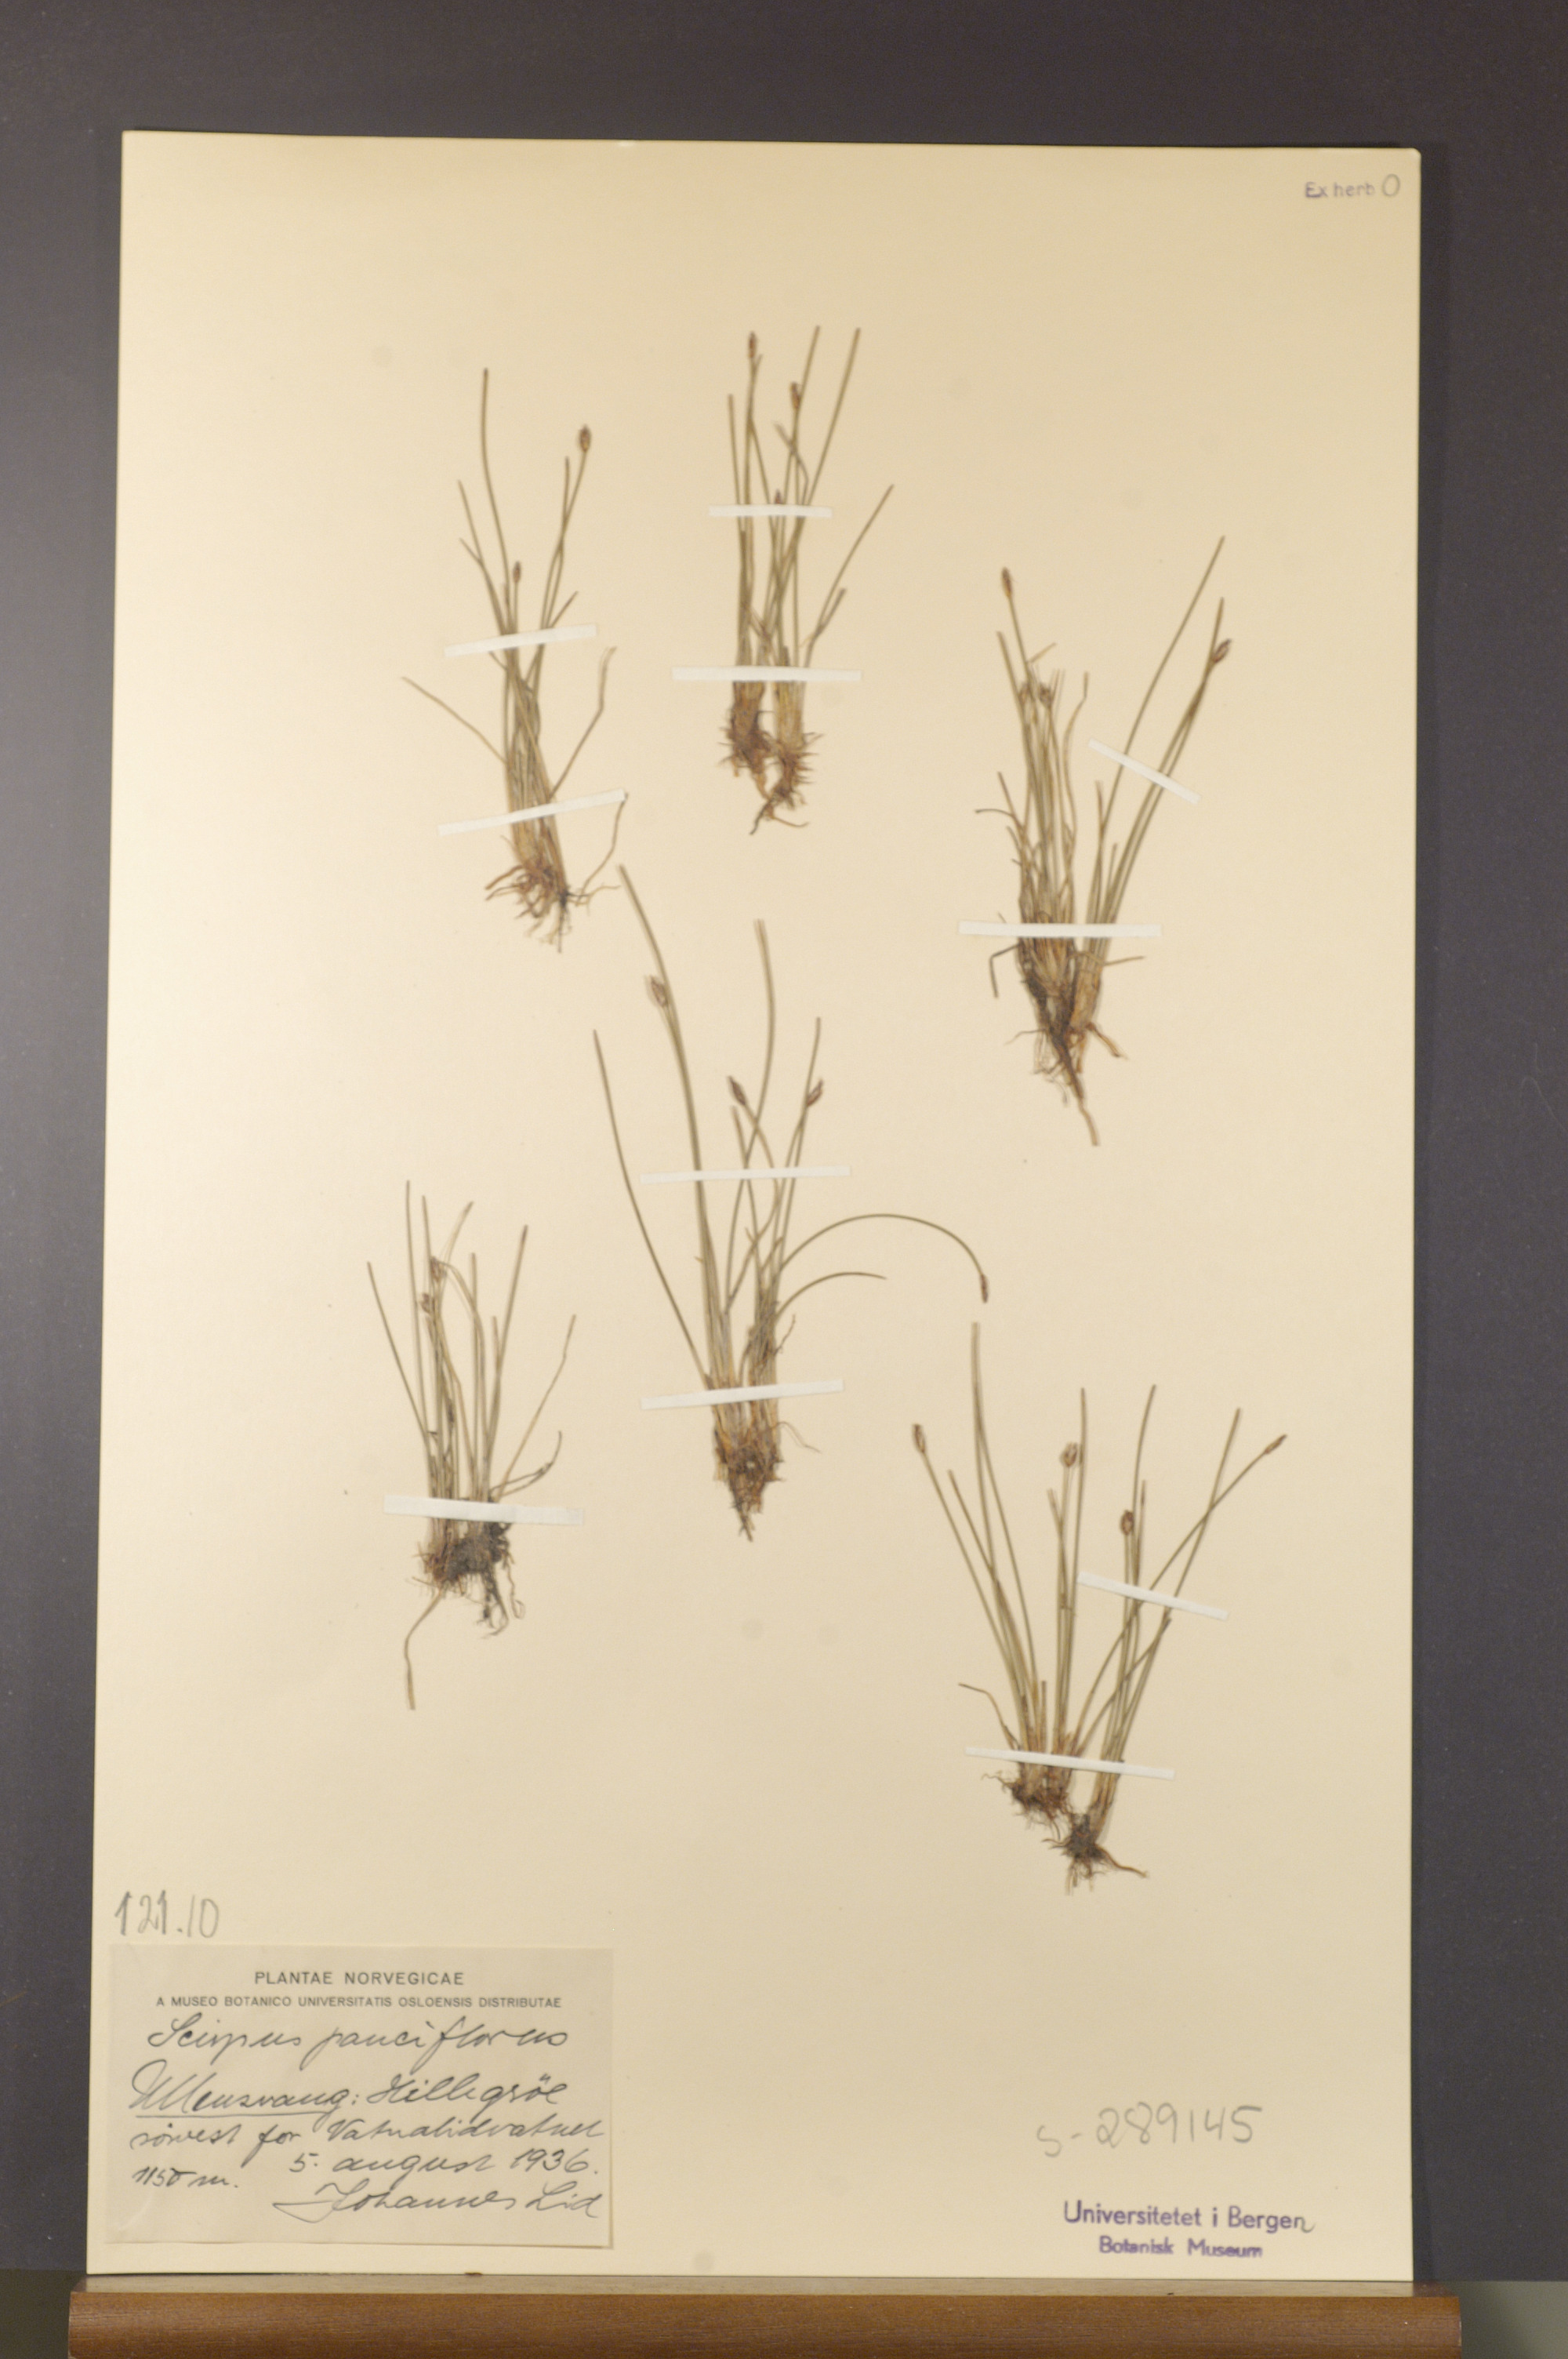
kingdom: Plantae
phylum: Tracheophyta
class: Liliopsida
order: Poales
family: Cyperaceae
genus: Eleocharis
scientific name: Eleocharis quinqueflora
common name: Few-flowered spike-rush
